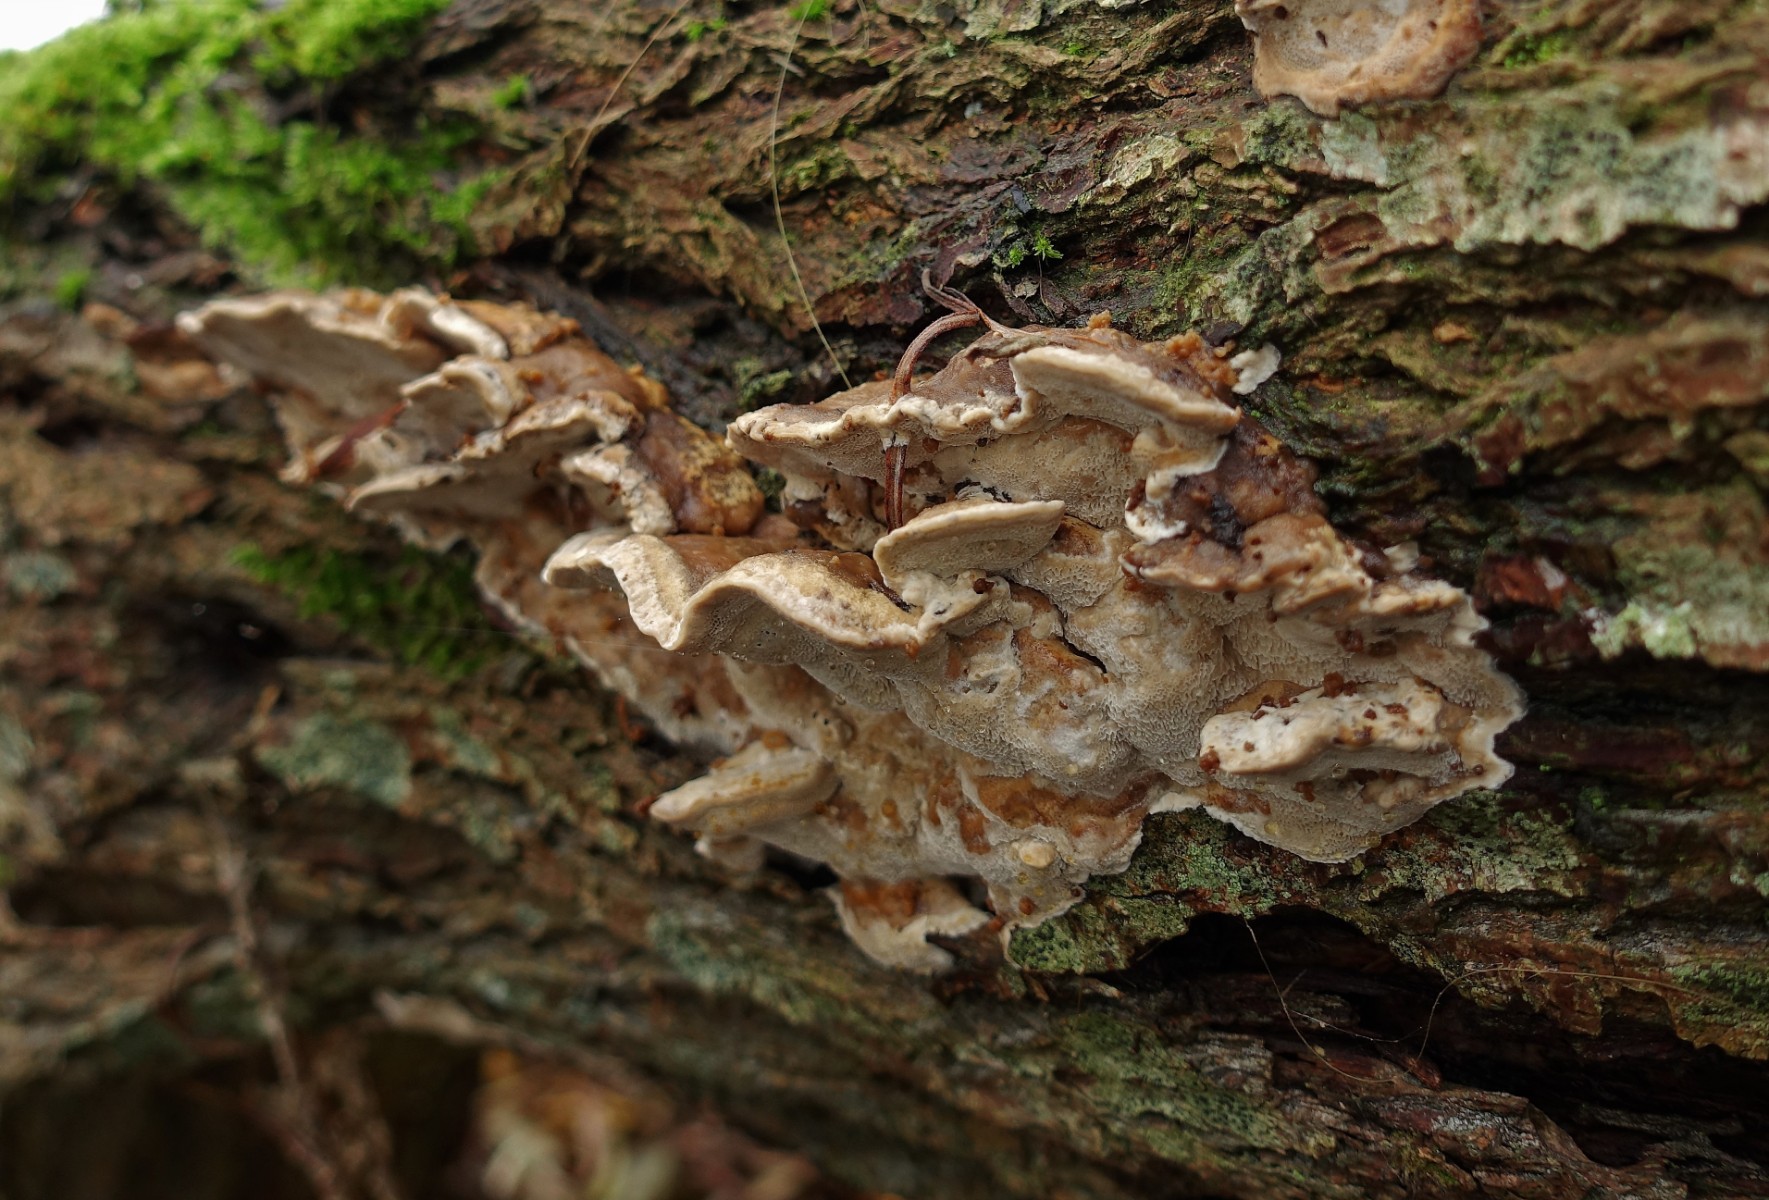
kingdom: Fungi
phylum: Basidiomycota
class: Agaricomycetes
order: Polyporales
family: Phanerochaetaceae
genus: Bjerkandera
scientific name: Bjerkandera fumosa
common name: grågul sodporesvamp
